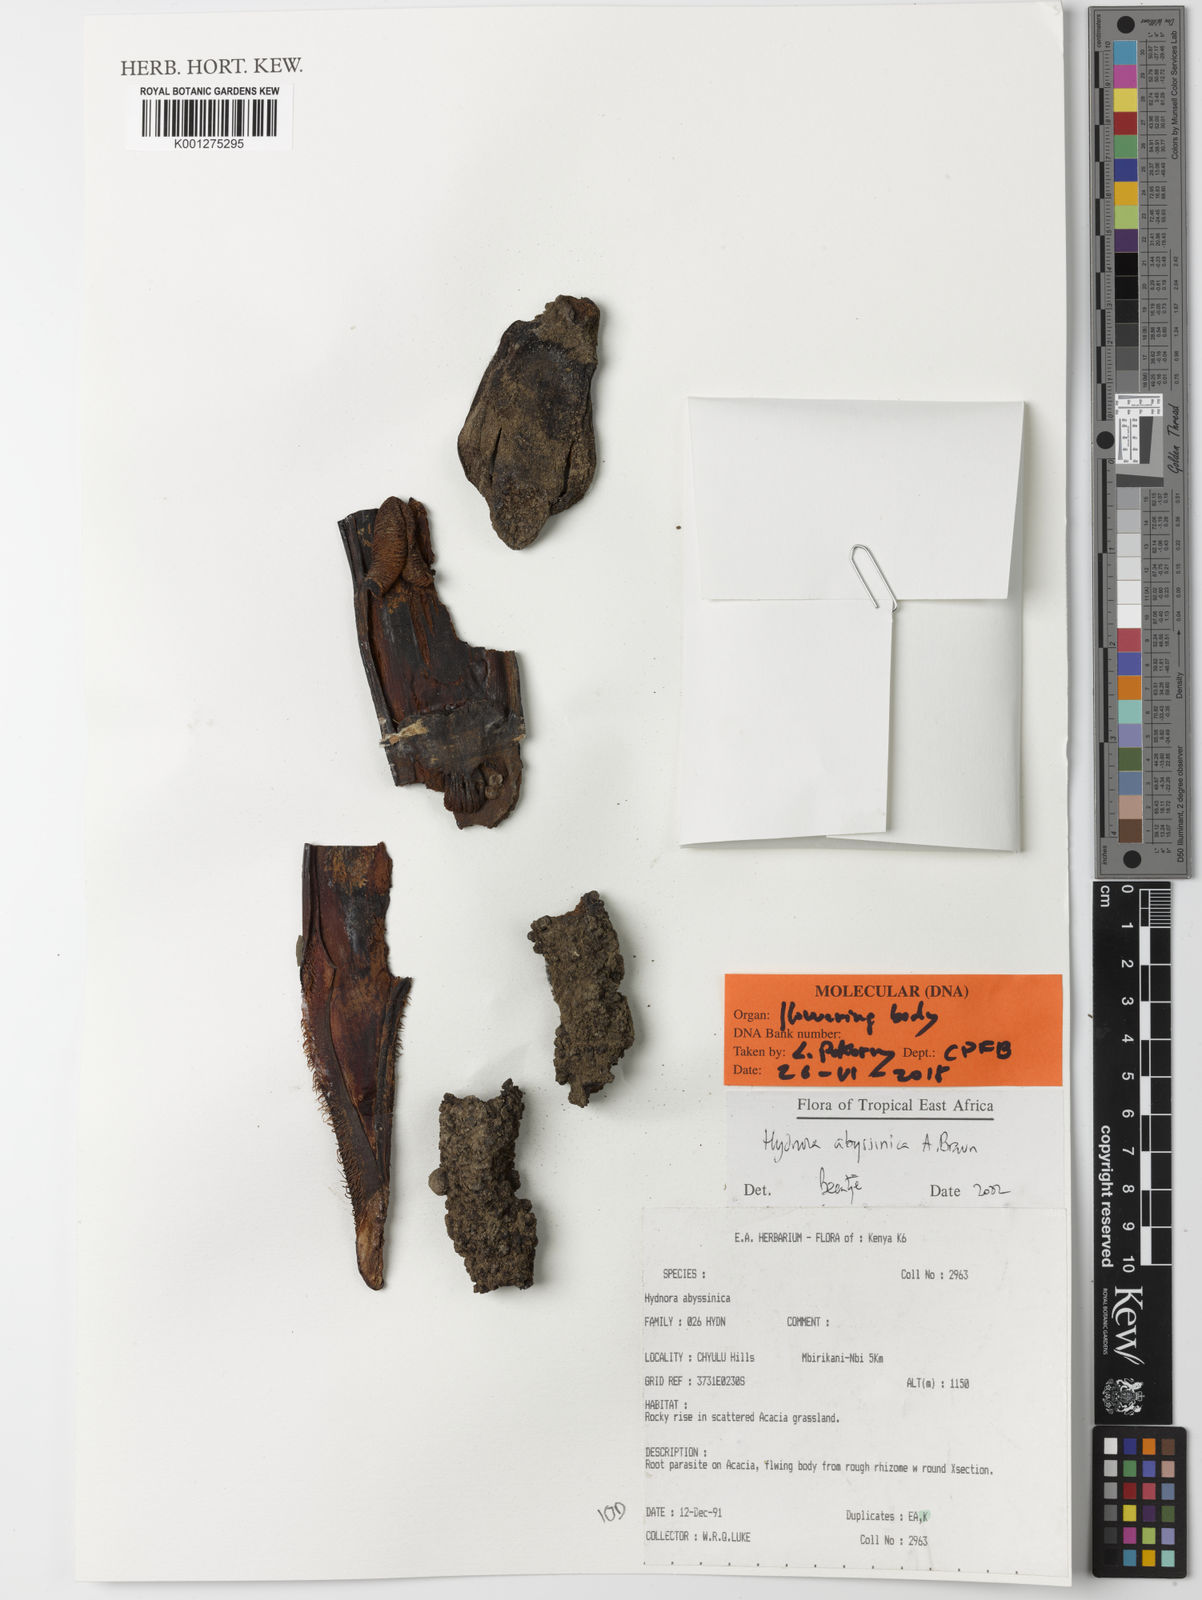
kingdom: Plantae
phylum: Tracheophyta
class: Magnoliopsida
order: Piperales
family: Hydnoraceae
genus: Hydnora
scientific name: Hydnora abyssinica
